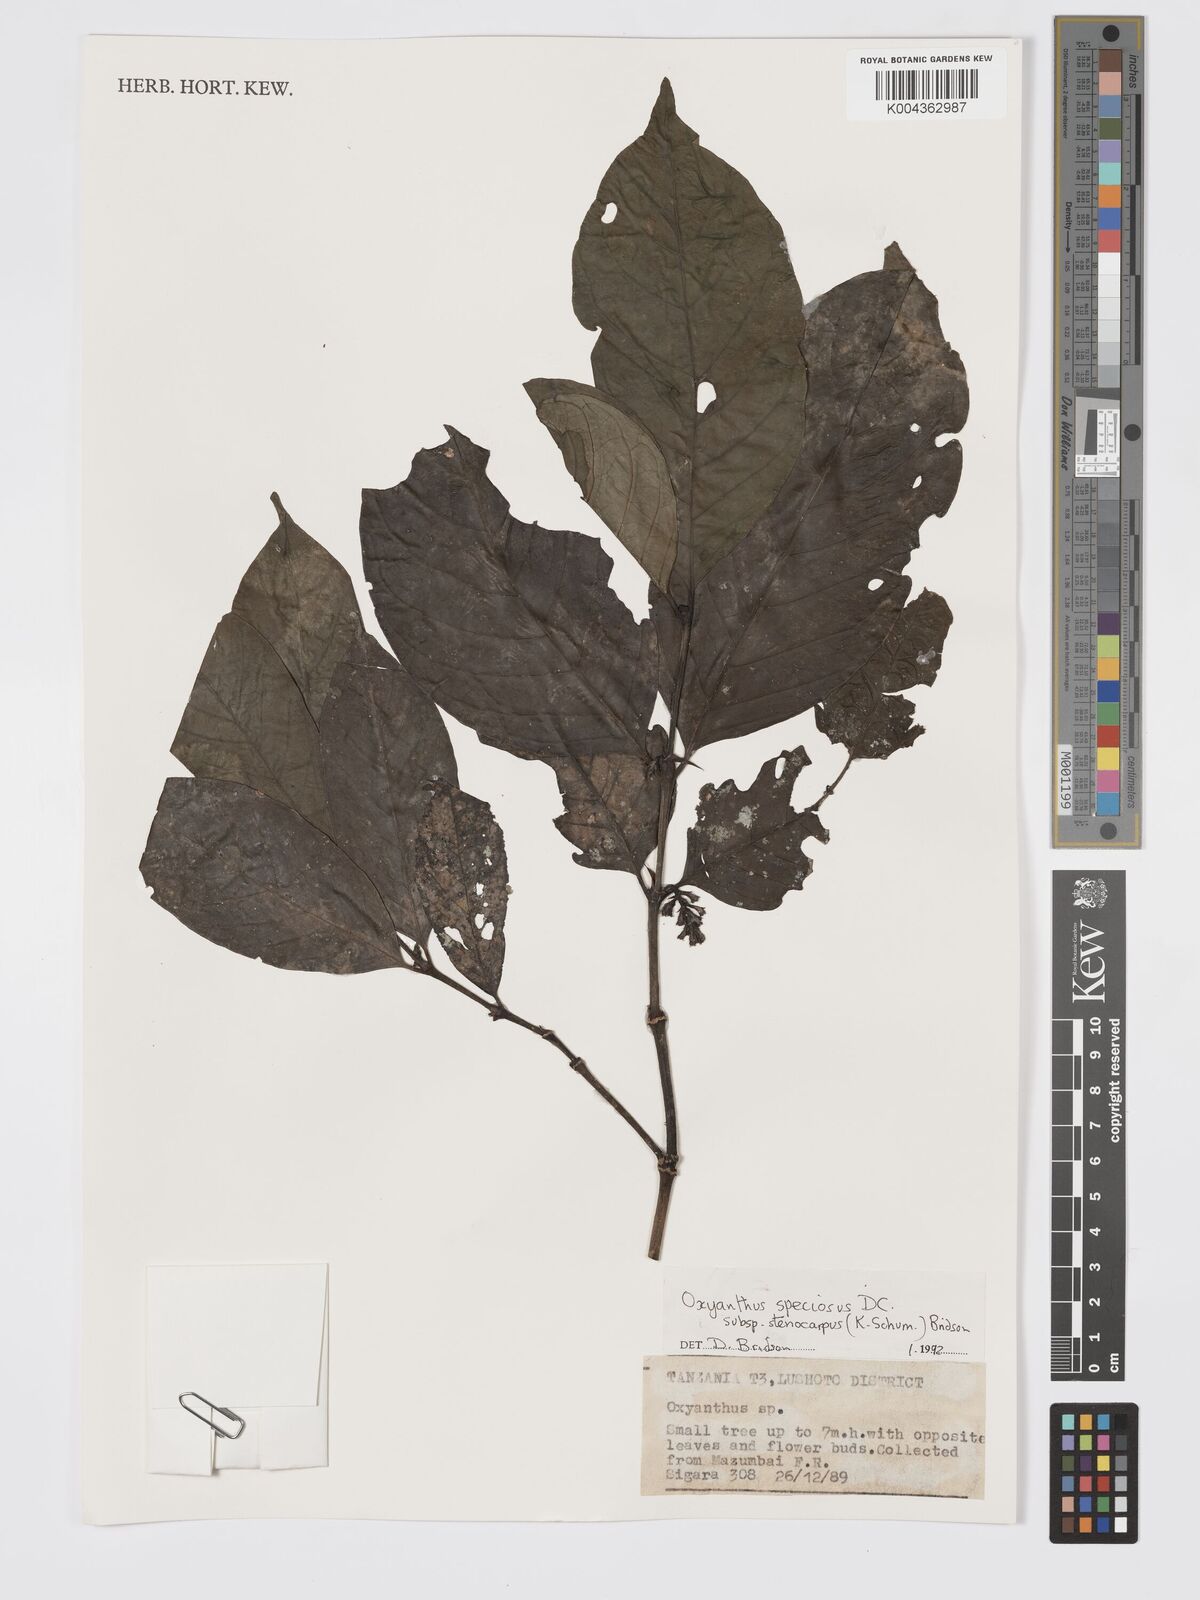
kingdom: Plantae
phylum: Tracheophyta
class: Magnoliopsida
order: Gentianales
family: Rubiaceae
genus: Oxyanthus
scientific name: Oxyanthus speciosus
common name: Whipstick loquat
